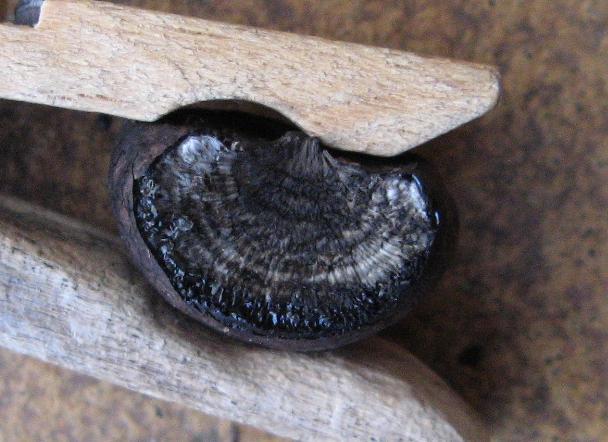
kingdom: Fungi
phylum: Ascomycota
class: Sordariomycetes
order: Xylariales
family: Hypoxylaceae
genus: Daldinia
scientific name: Daldinia concentrica
